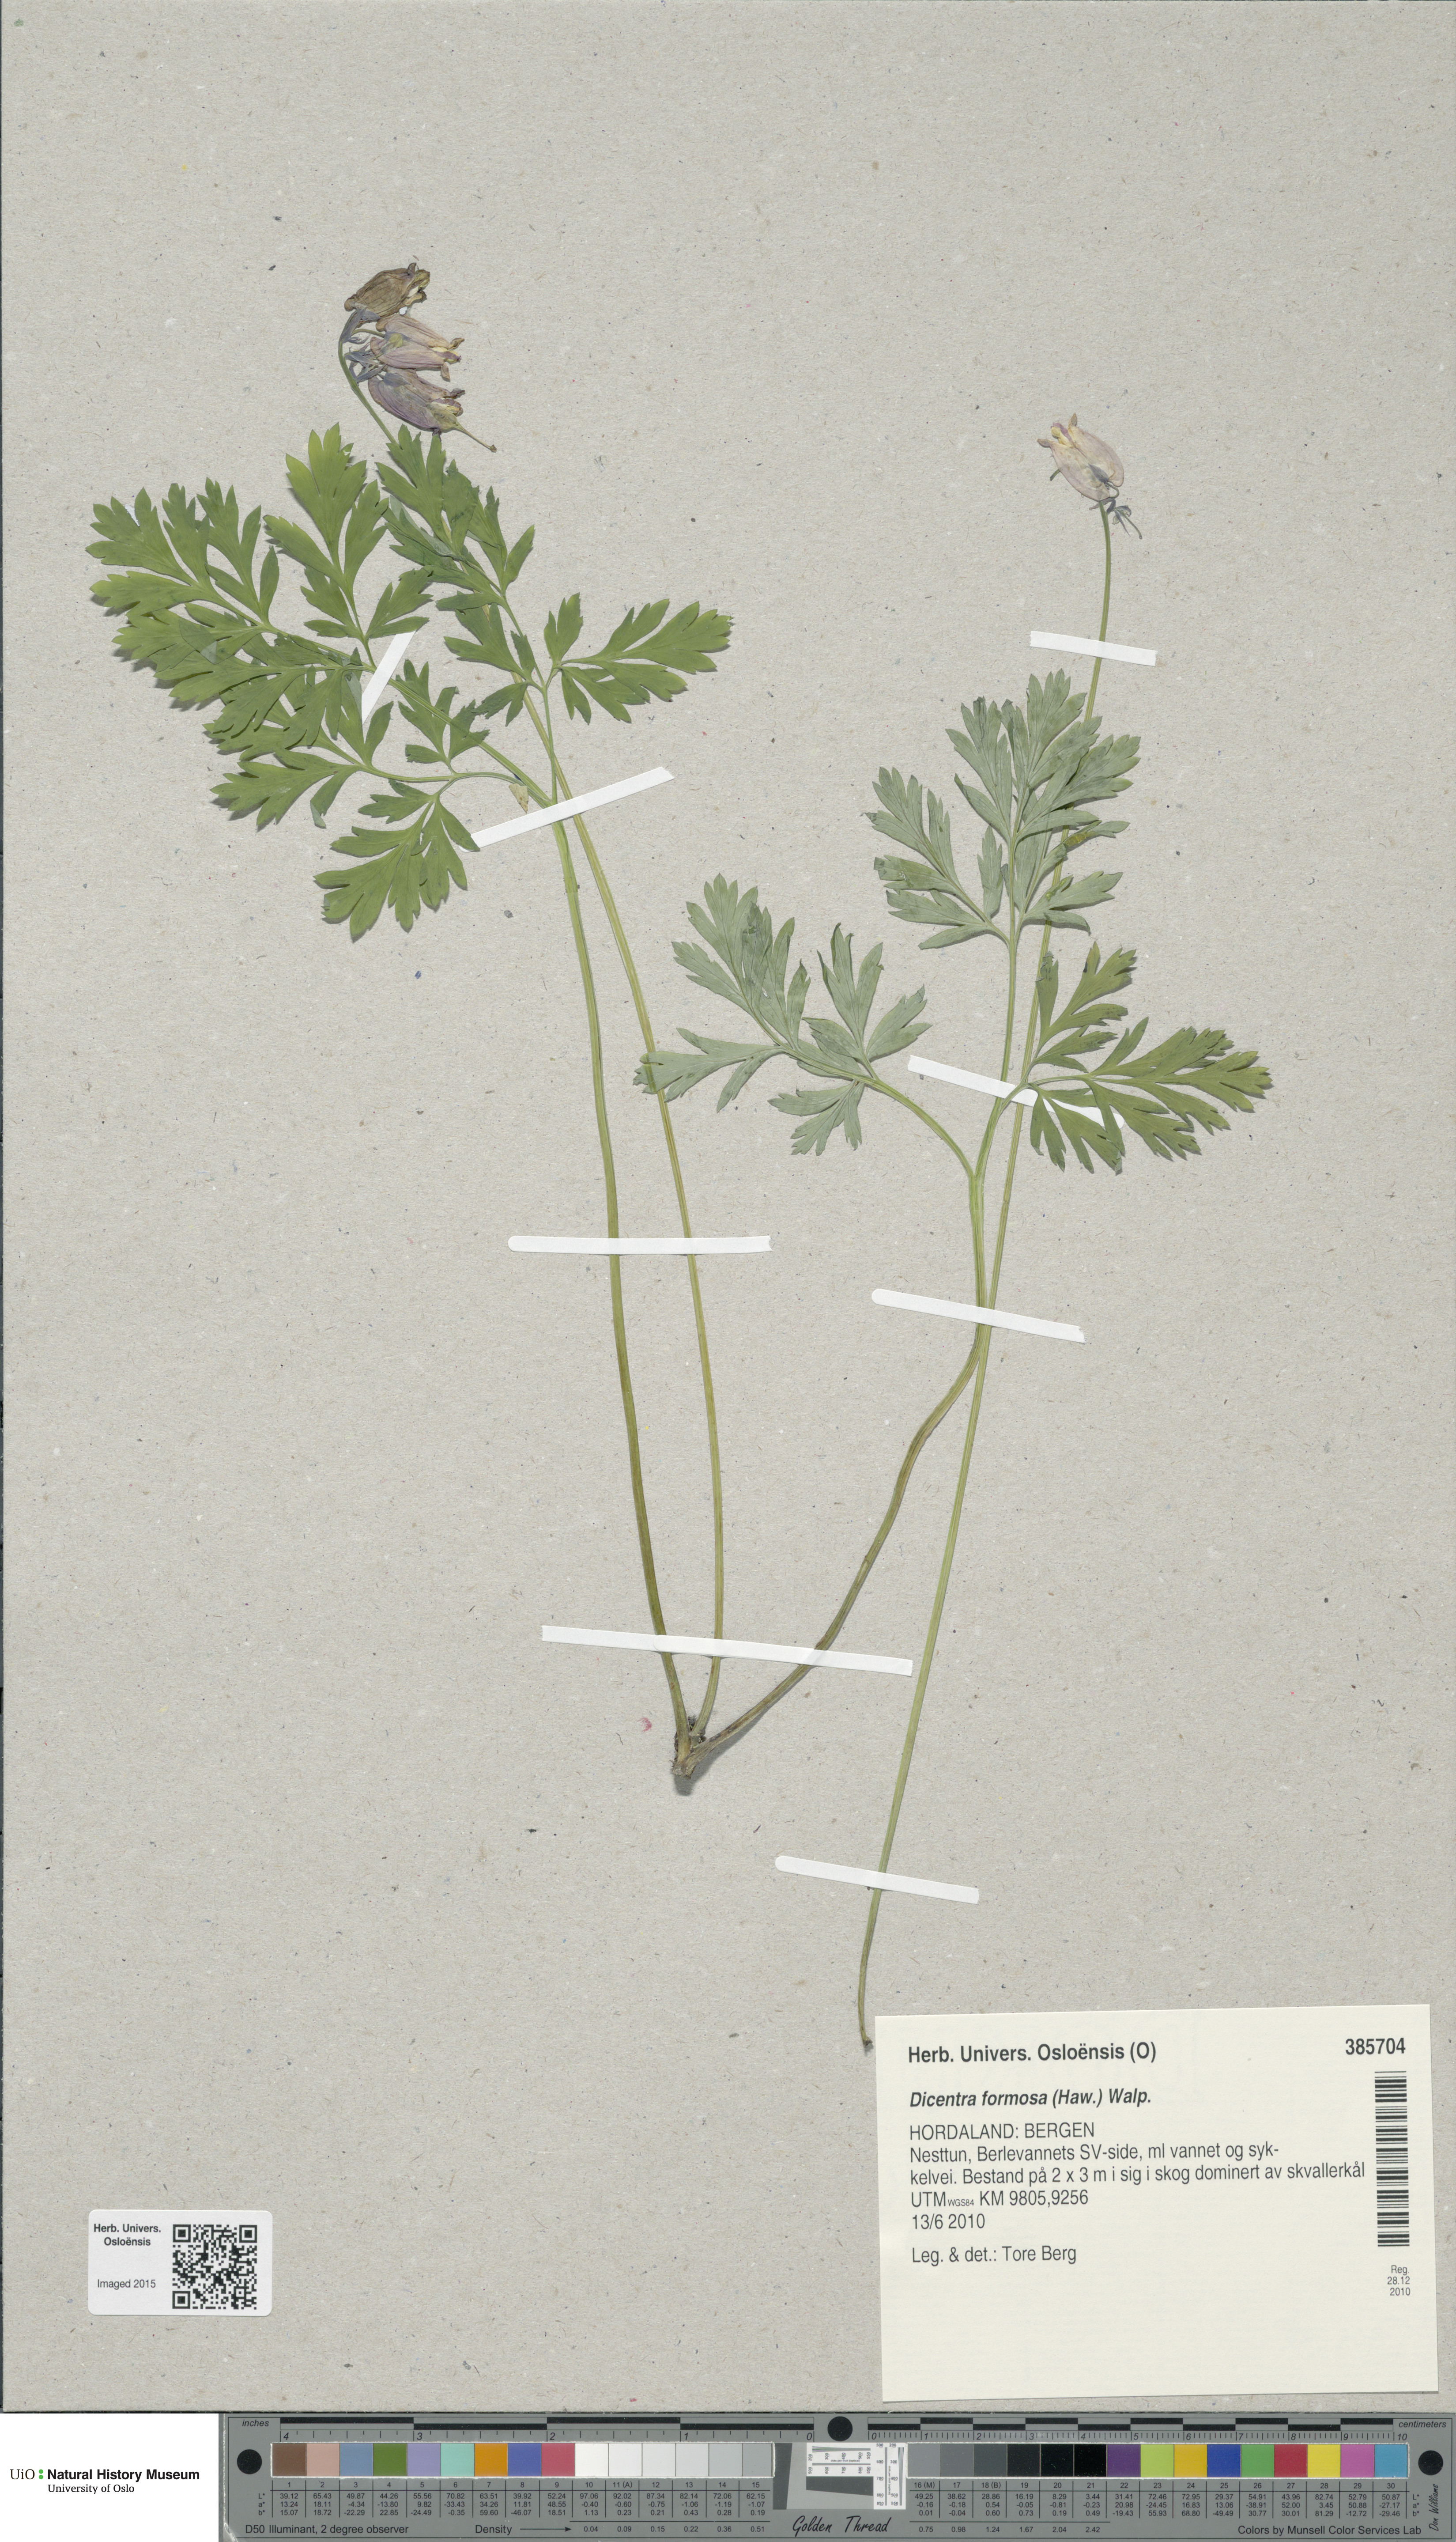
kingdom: Plantae
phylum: Tracheophyta
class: Magnoliopsida
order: Ranunculales
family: Papaveraceae
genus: Dicentra
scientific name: Dicentra formosa
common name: Bleeding-heart
